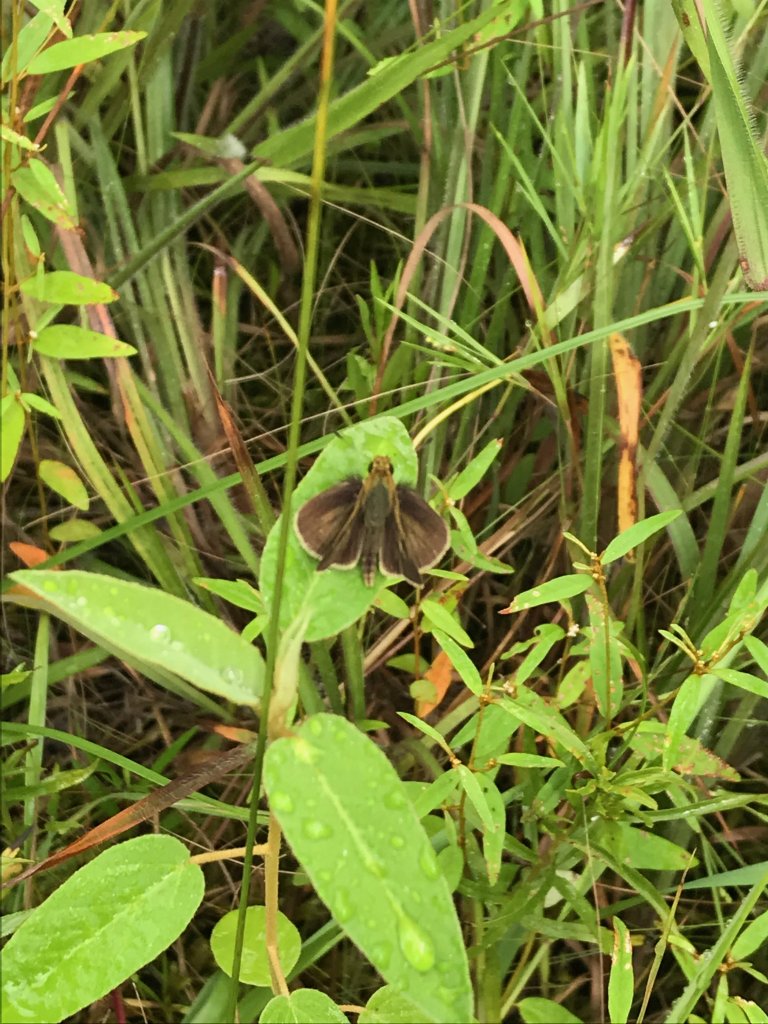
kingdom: Animalia
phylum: Arthropoda
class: Insecta
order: Lepidoptera
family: Hesperiidae
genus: Euphyes
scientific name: Euphyes vestris
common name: Dun Skipper
